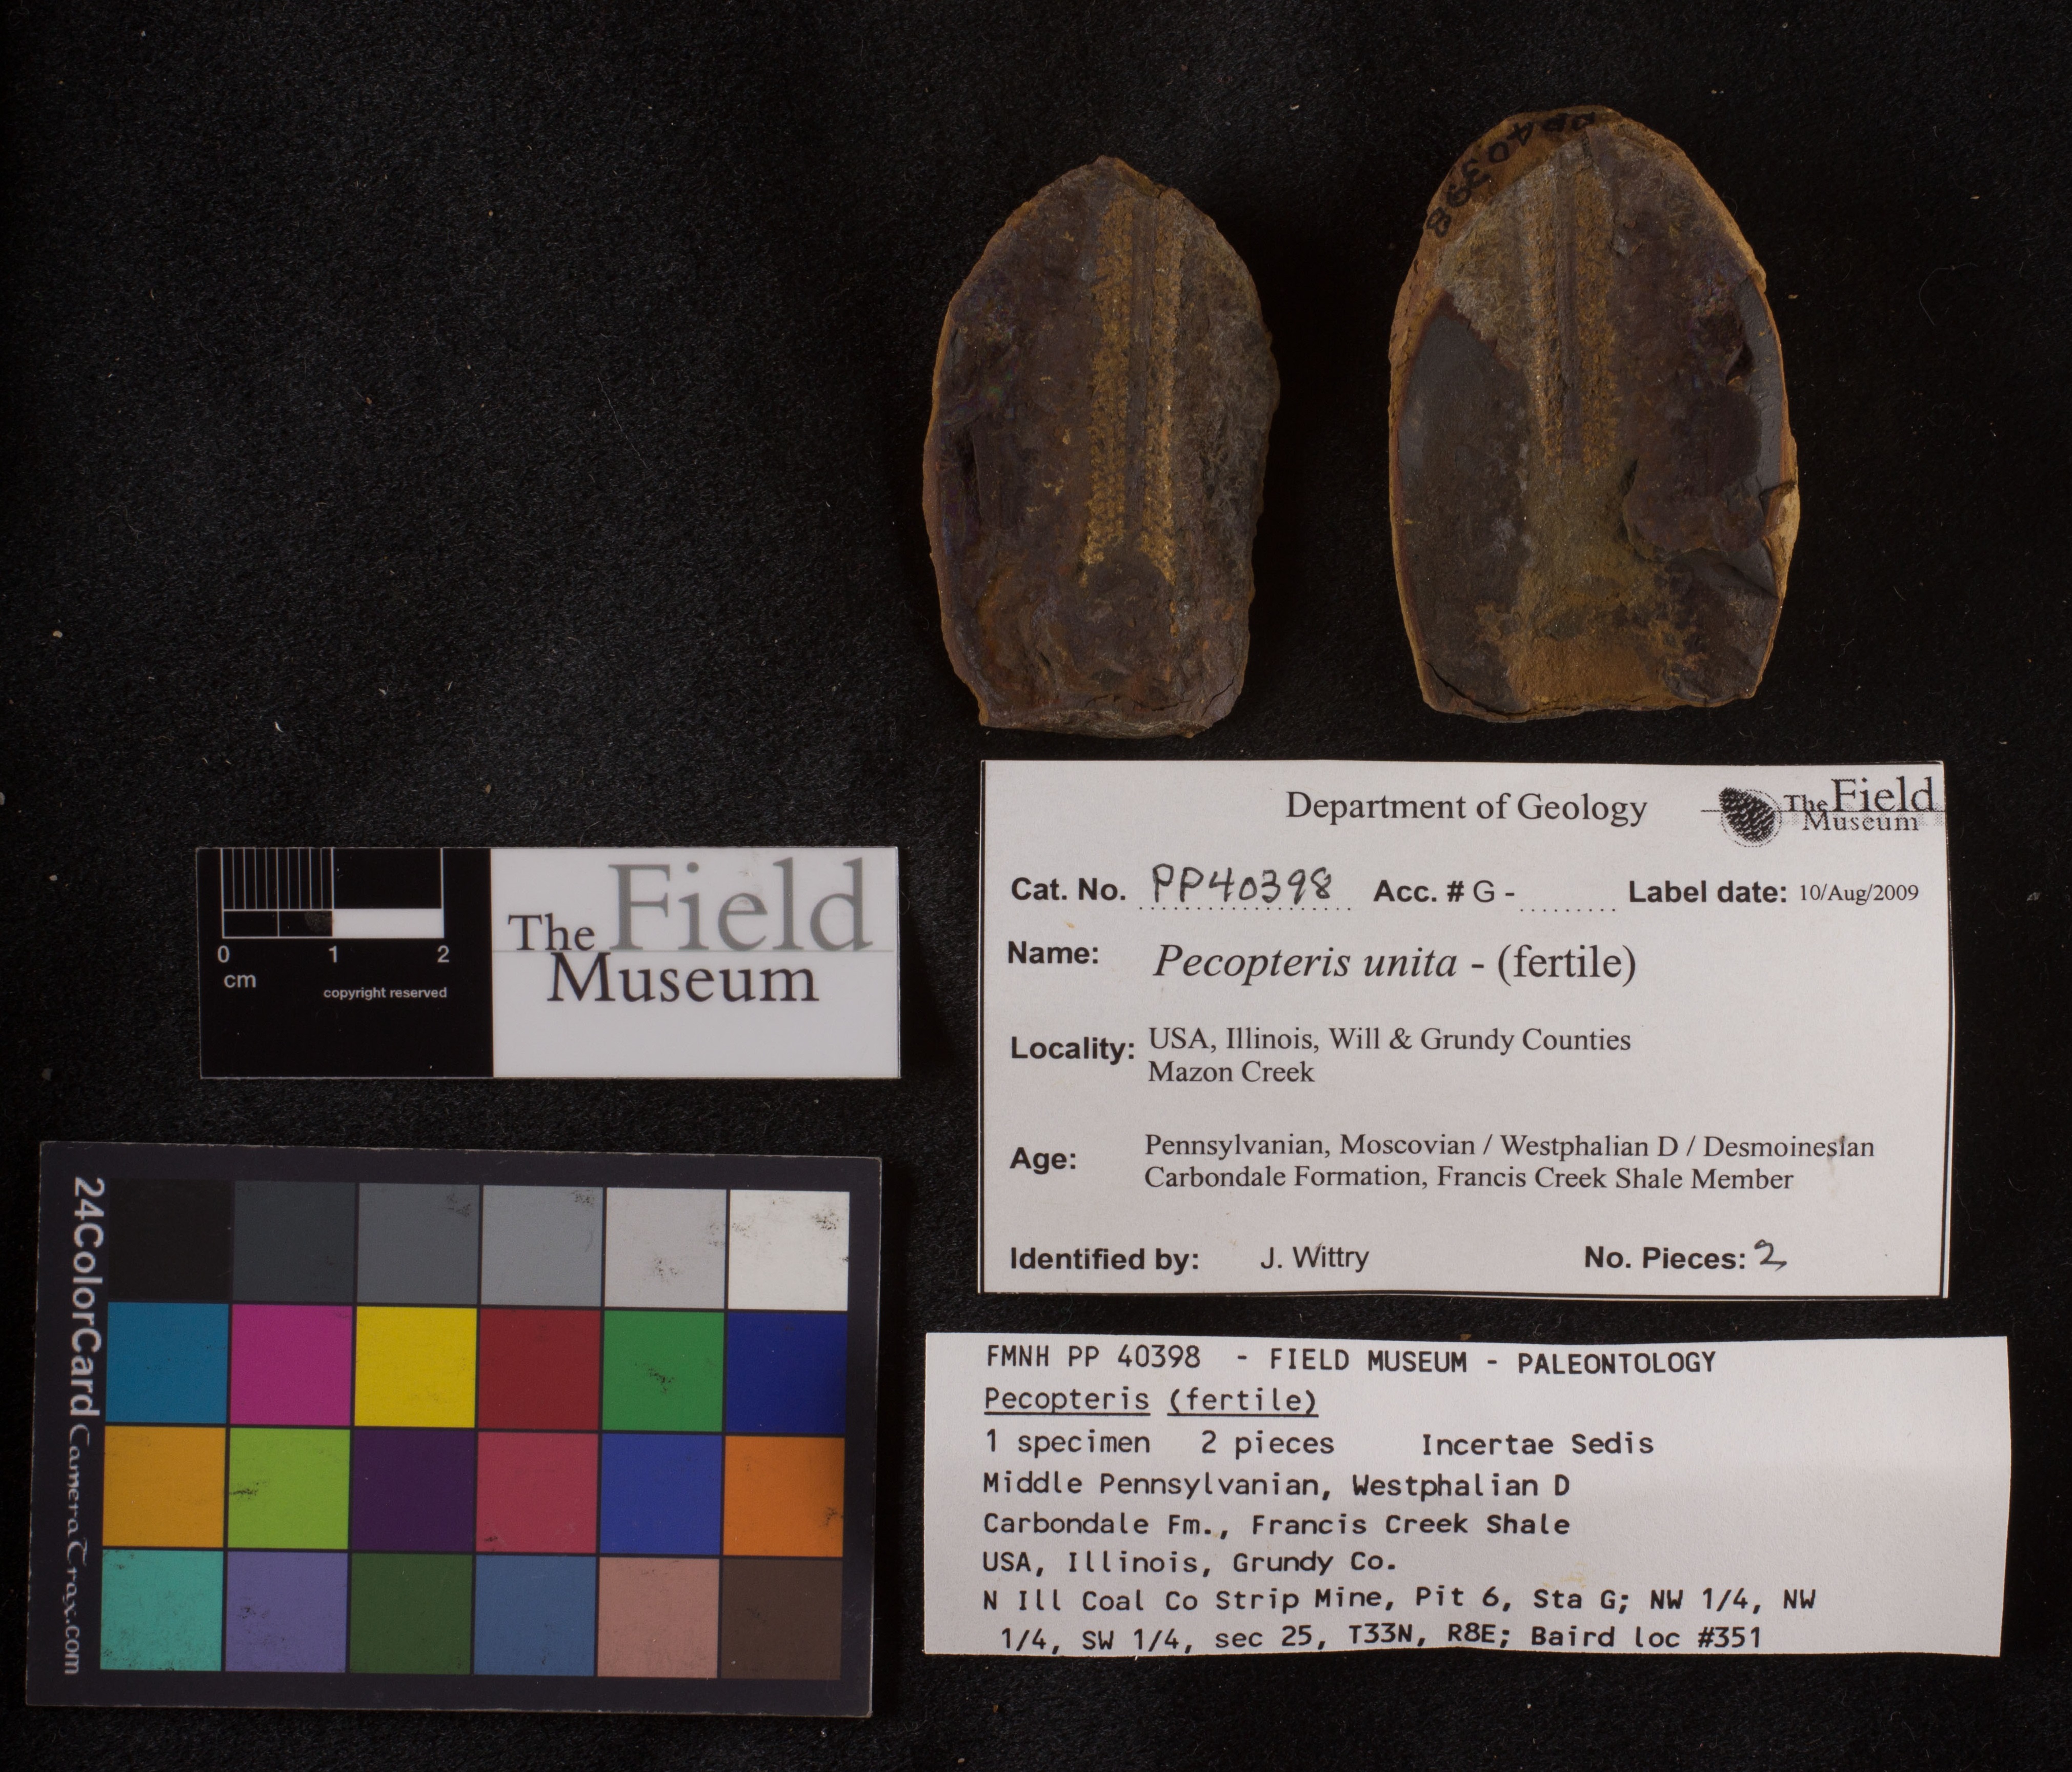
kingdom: Plantae
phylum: Tracheophyta
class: Polypodiopsida
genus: Diplazites
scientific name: Diplazites
